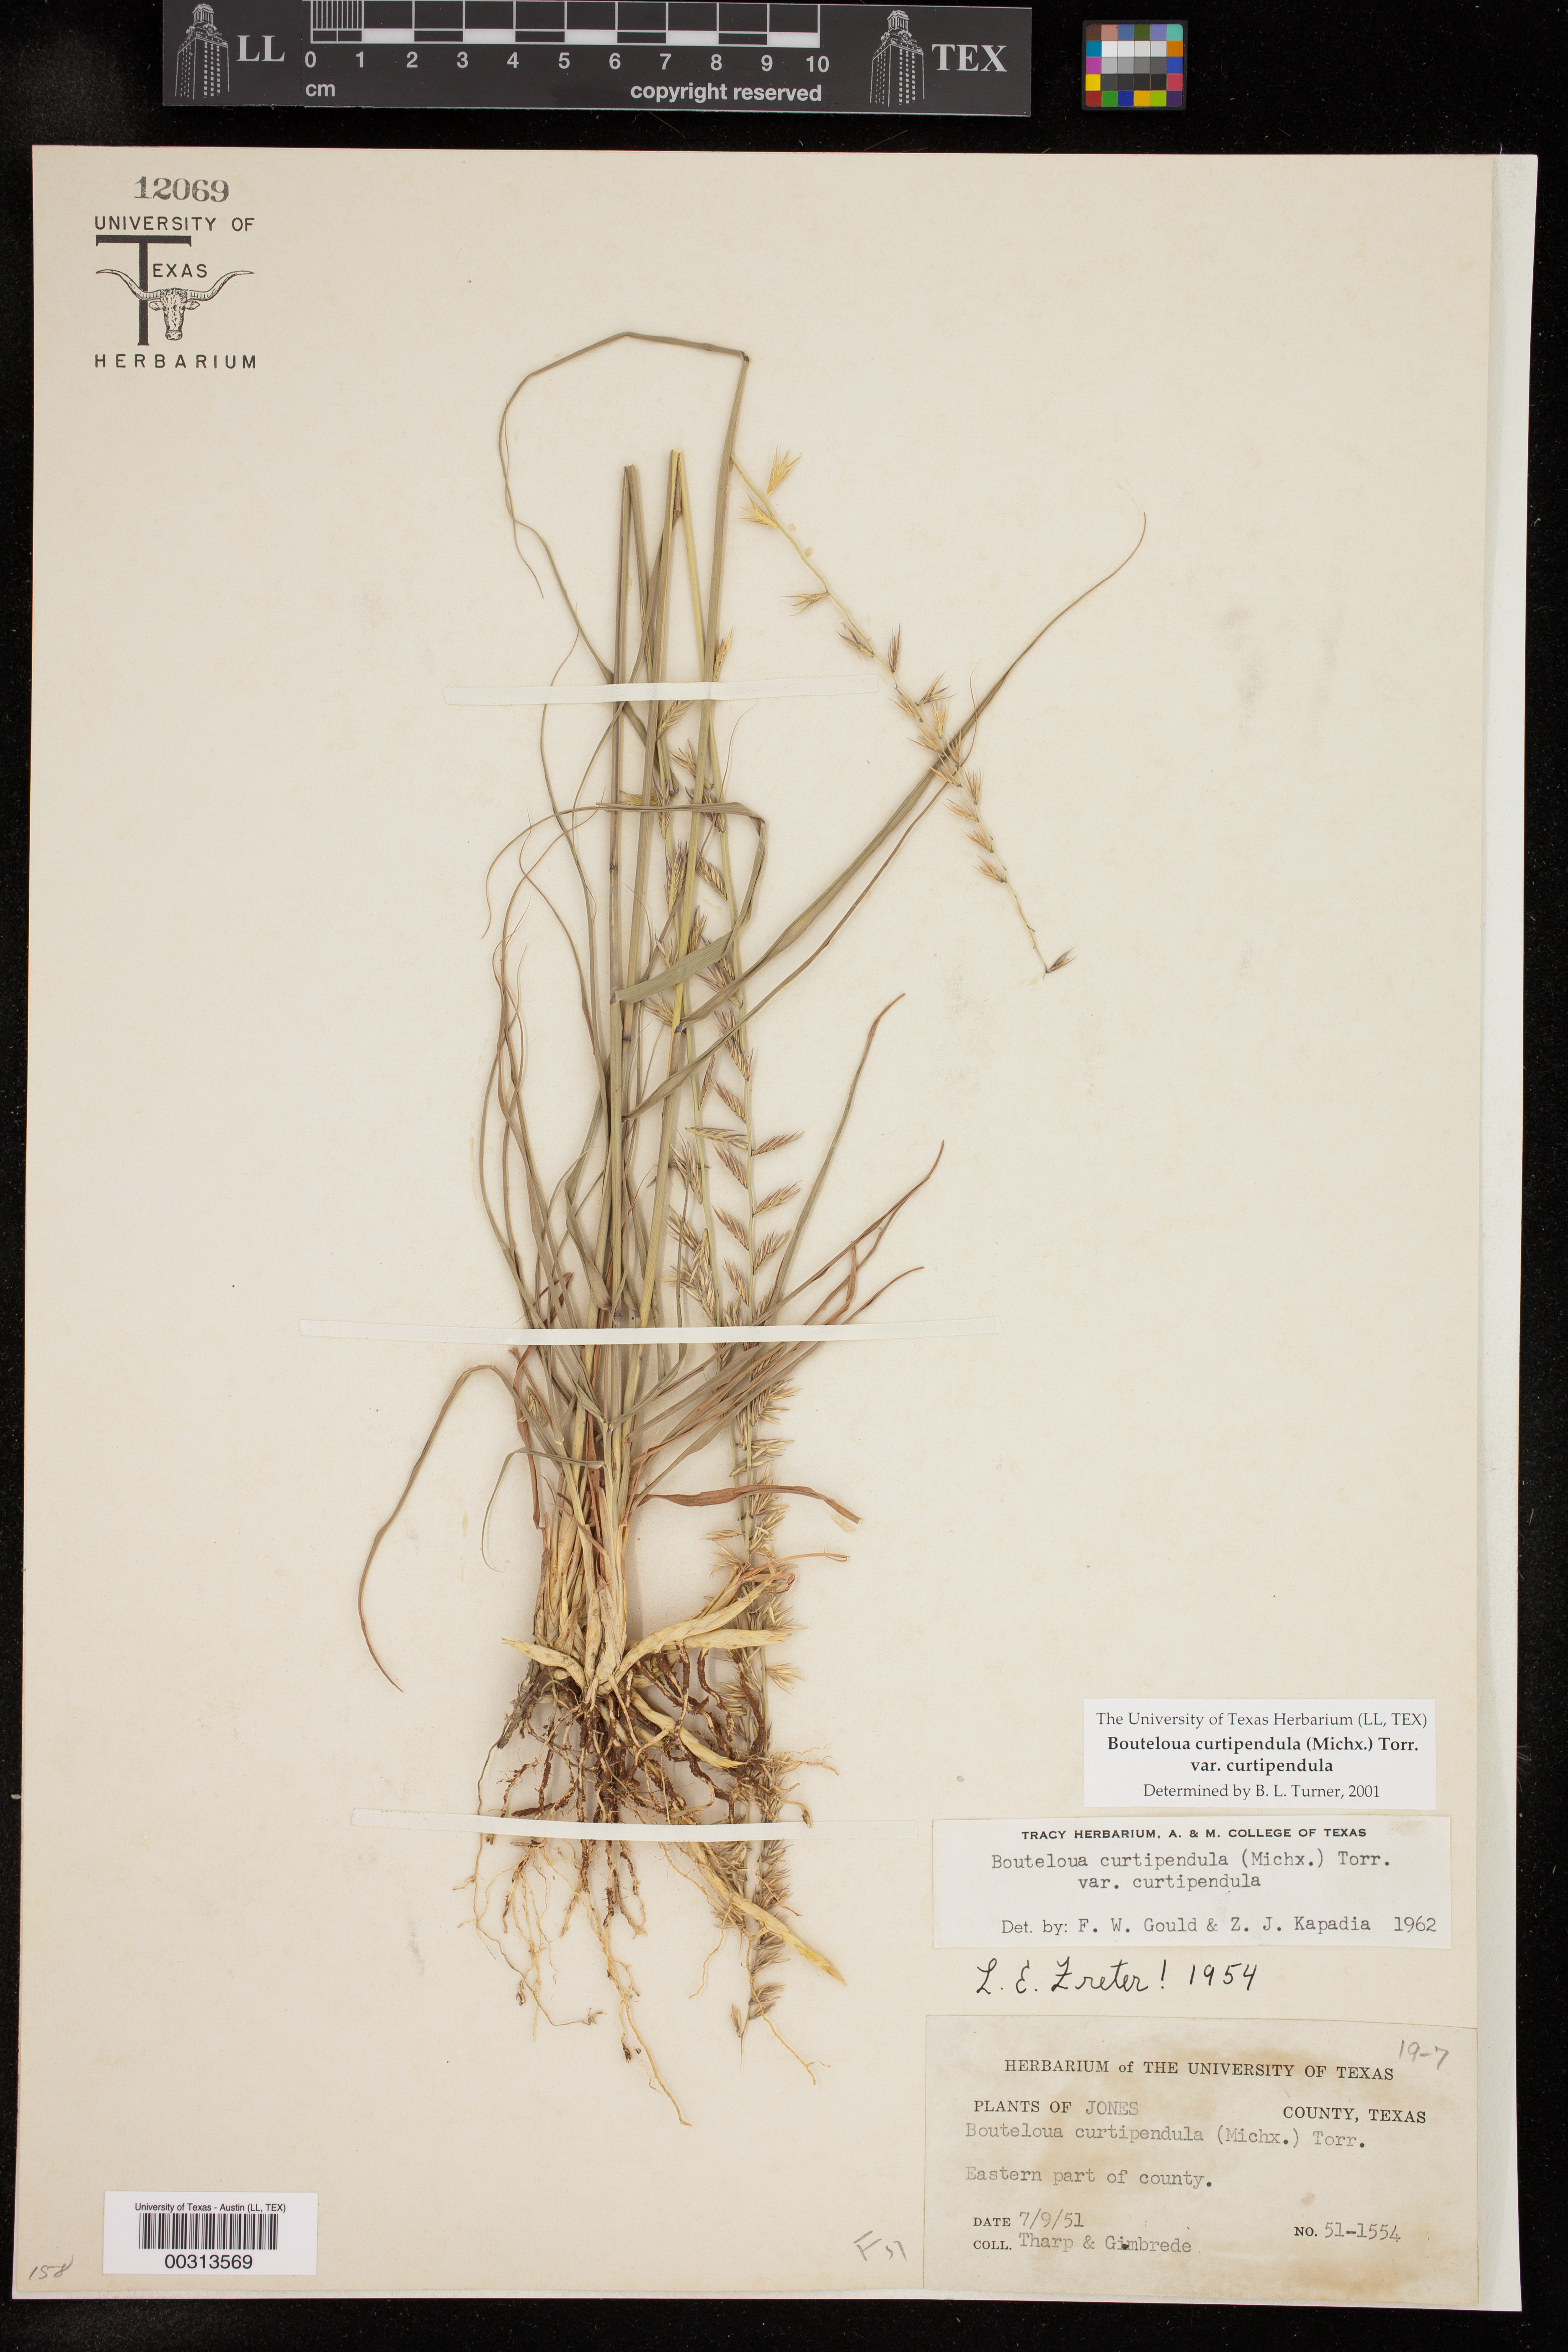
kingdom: Plantae
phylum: Tracheophyta
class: Liliopsida
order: Poales
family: Poaceae
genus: Bouteloua
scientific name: Bouteloua curtipendula
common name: Side-oats grama
